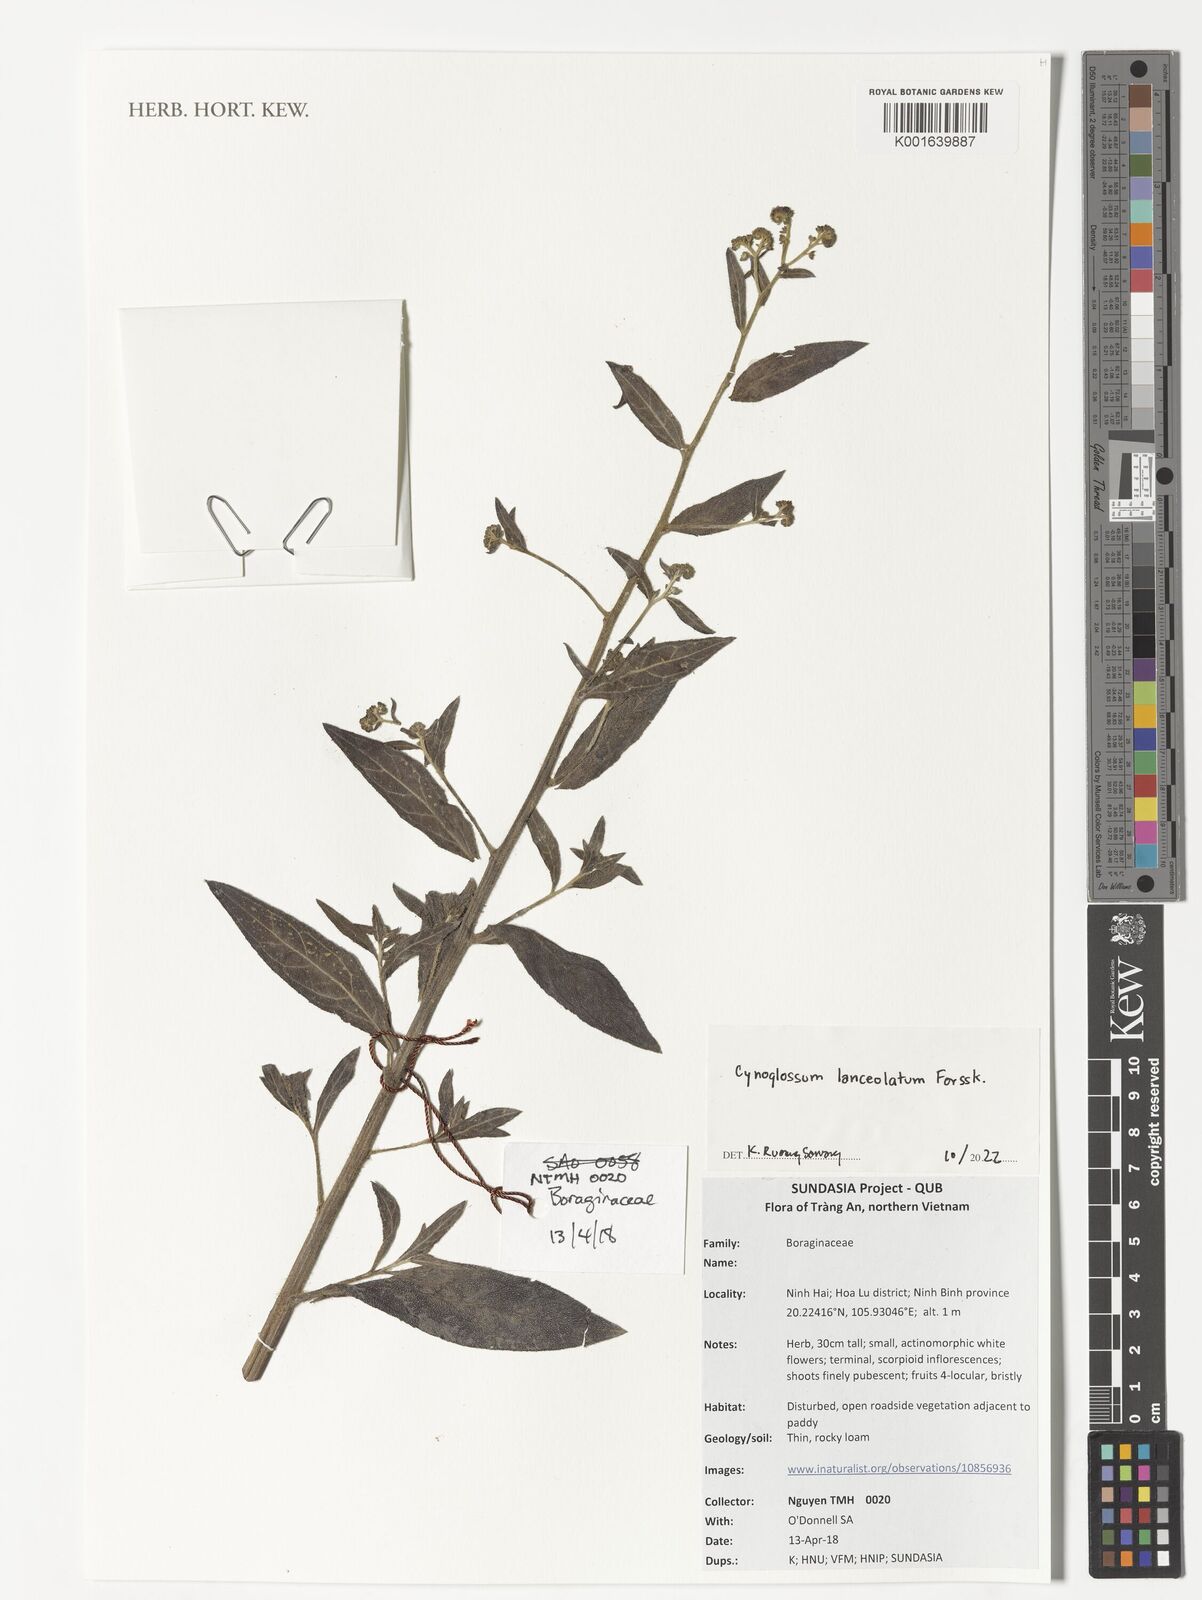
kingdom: Plantae
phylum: Tracheophyta
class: Magnoliopsida
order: Boraginales
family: Boraginaceae
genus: Paracynoglossum
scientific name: Paracynoglossum lanceolatum
